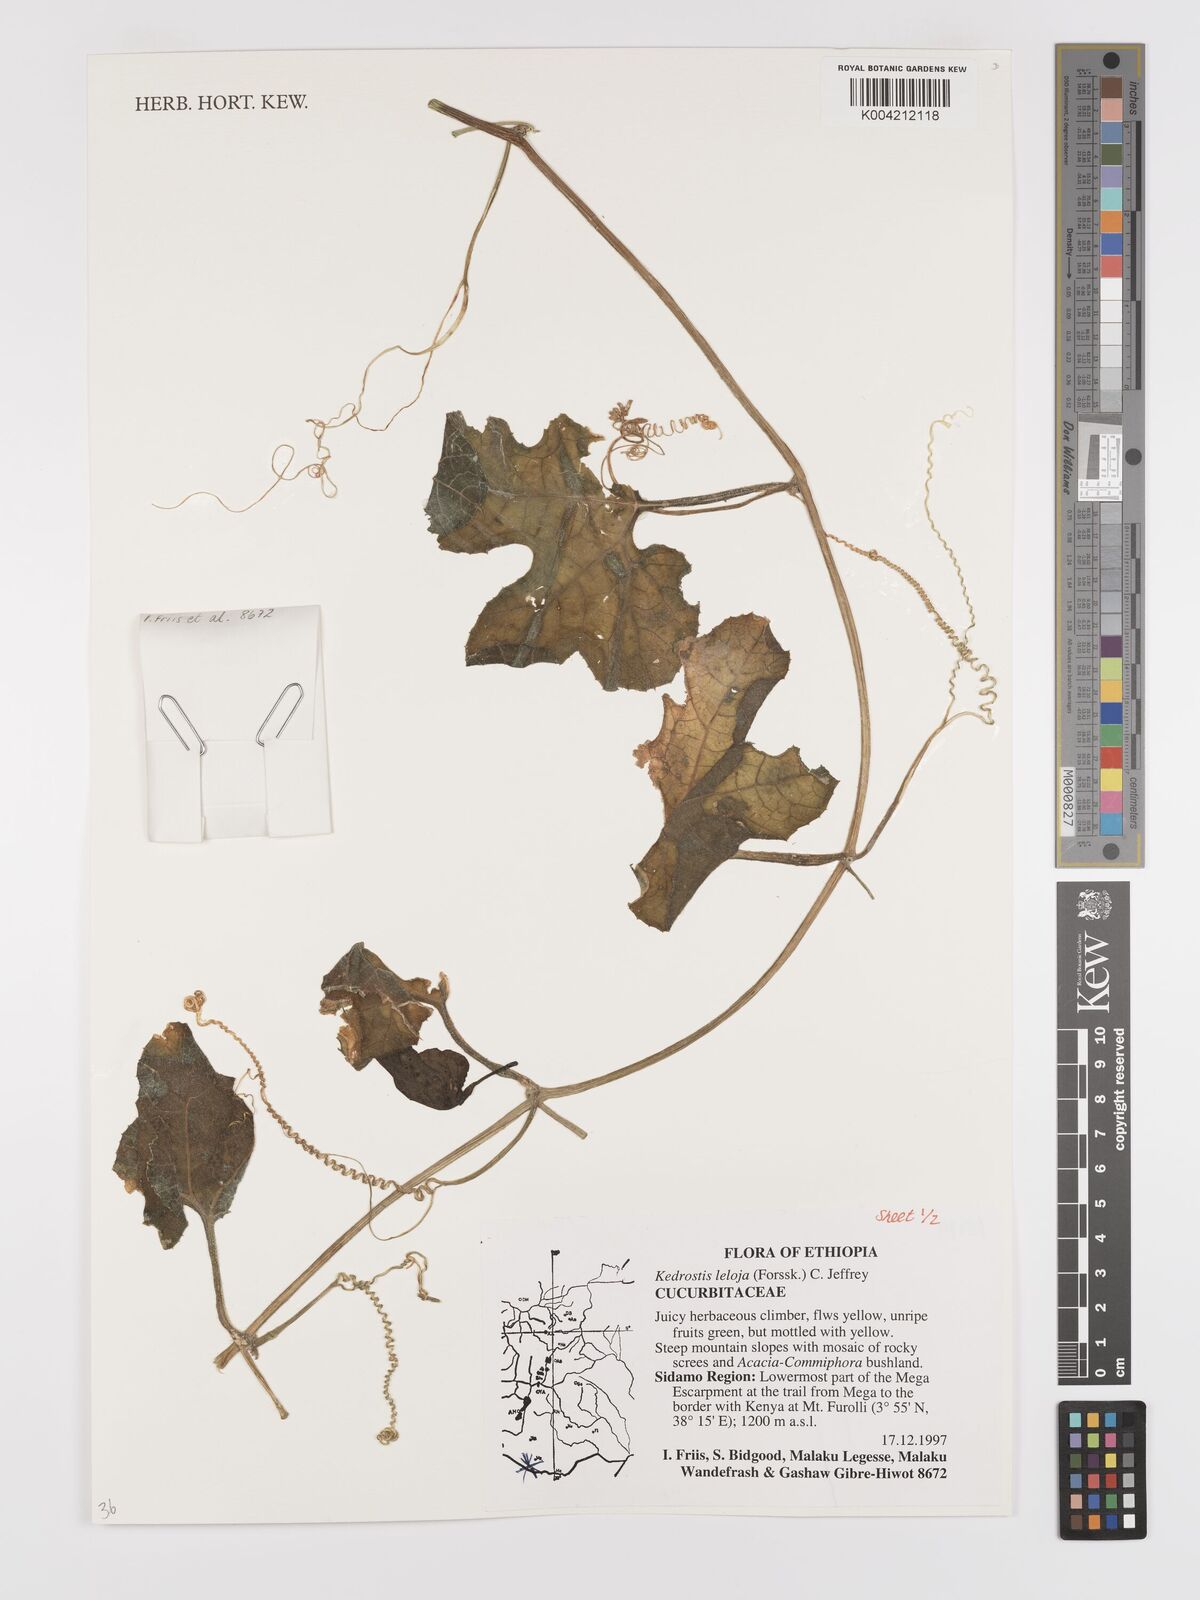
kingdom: Plantae
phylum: Tracheophyta
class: Magnoliopsida
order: Cucurbitales
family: Cucurbitaceae
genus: Kedrostis
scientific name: Kedrostis abdallae
